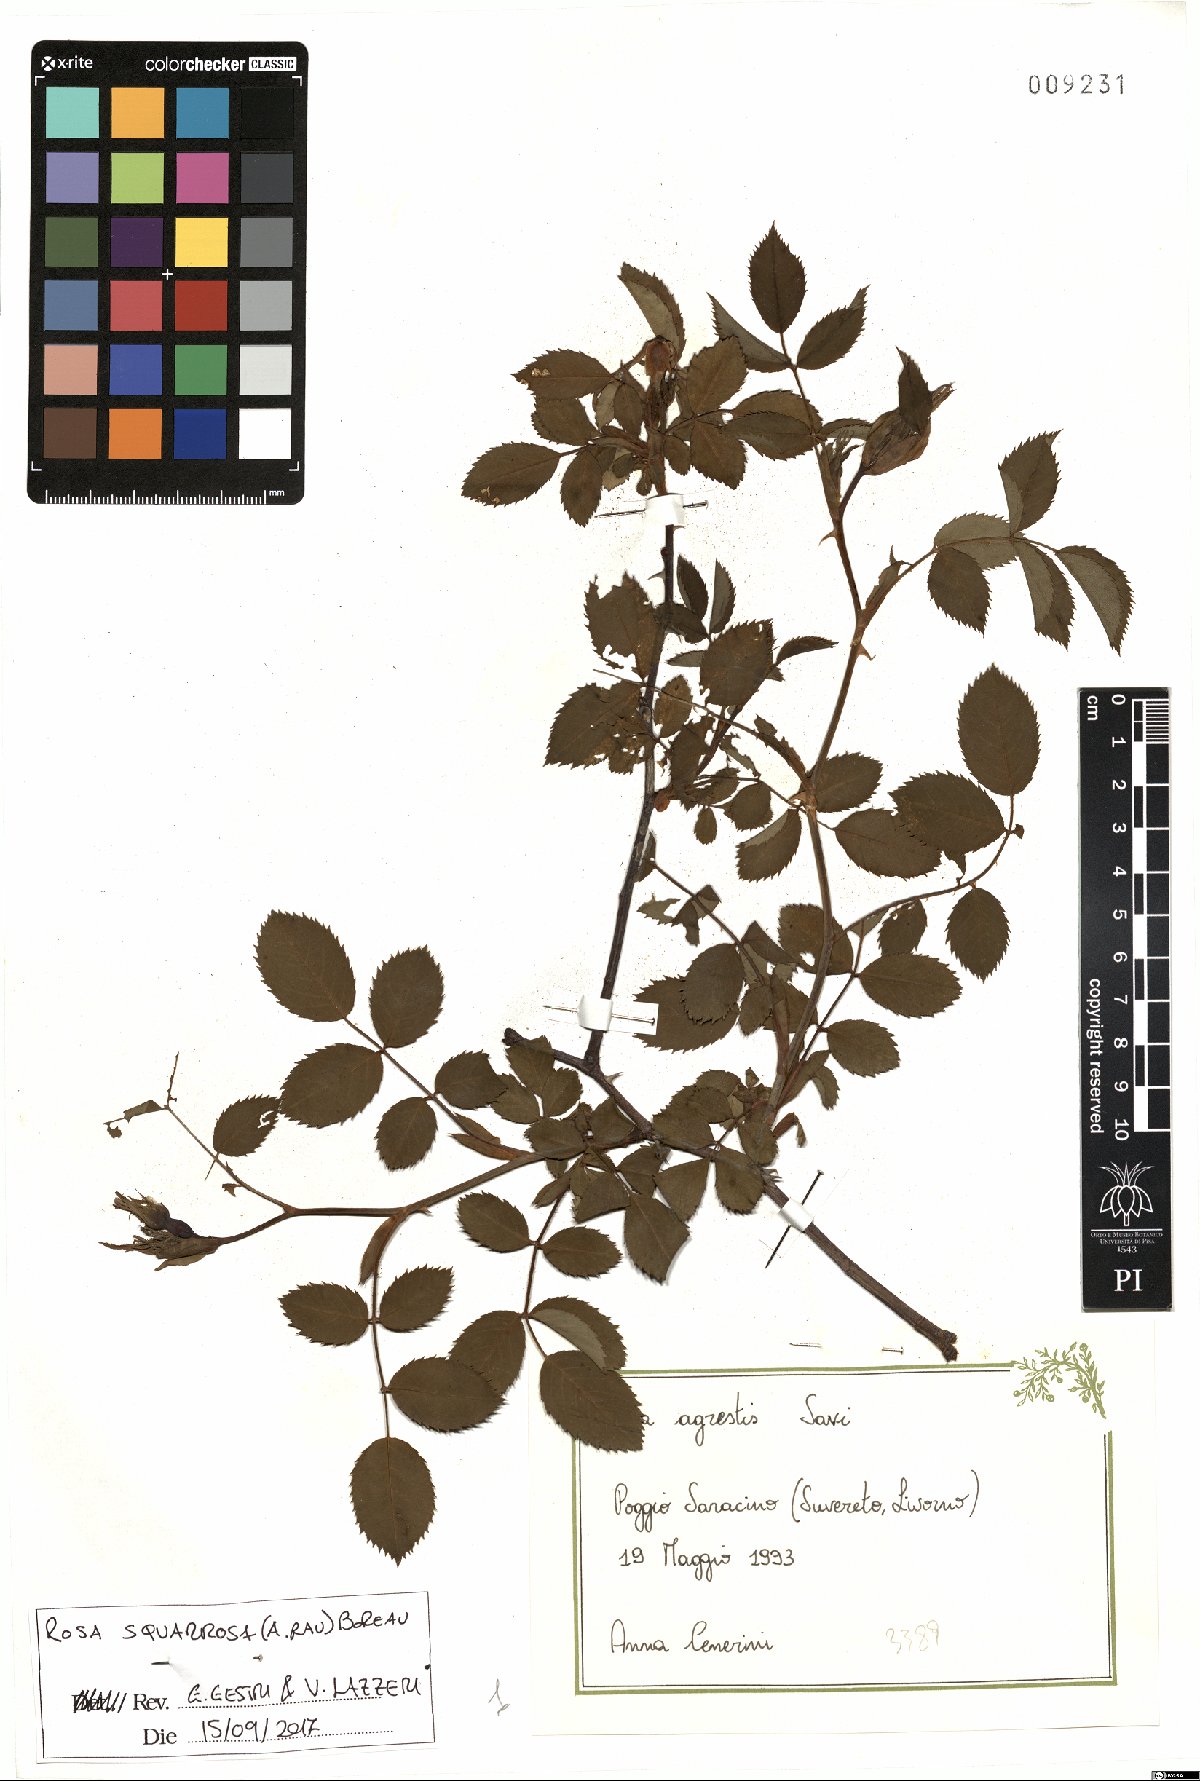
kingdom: Plantae
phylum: Tracheophyta
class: Magnoliopsida
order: Rosales
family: Rosaceae
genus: Rosa
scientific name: Rosa canina
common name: Dog rose
